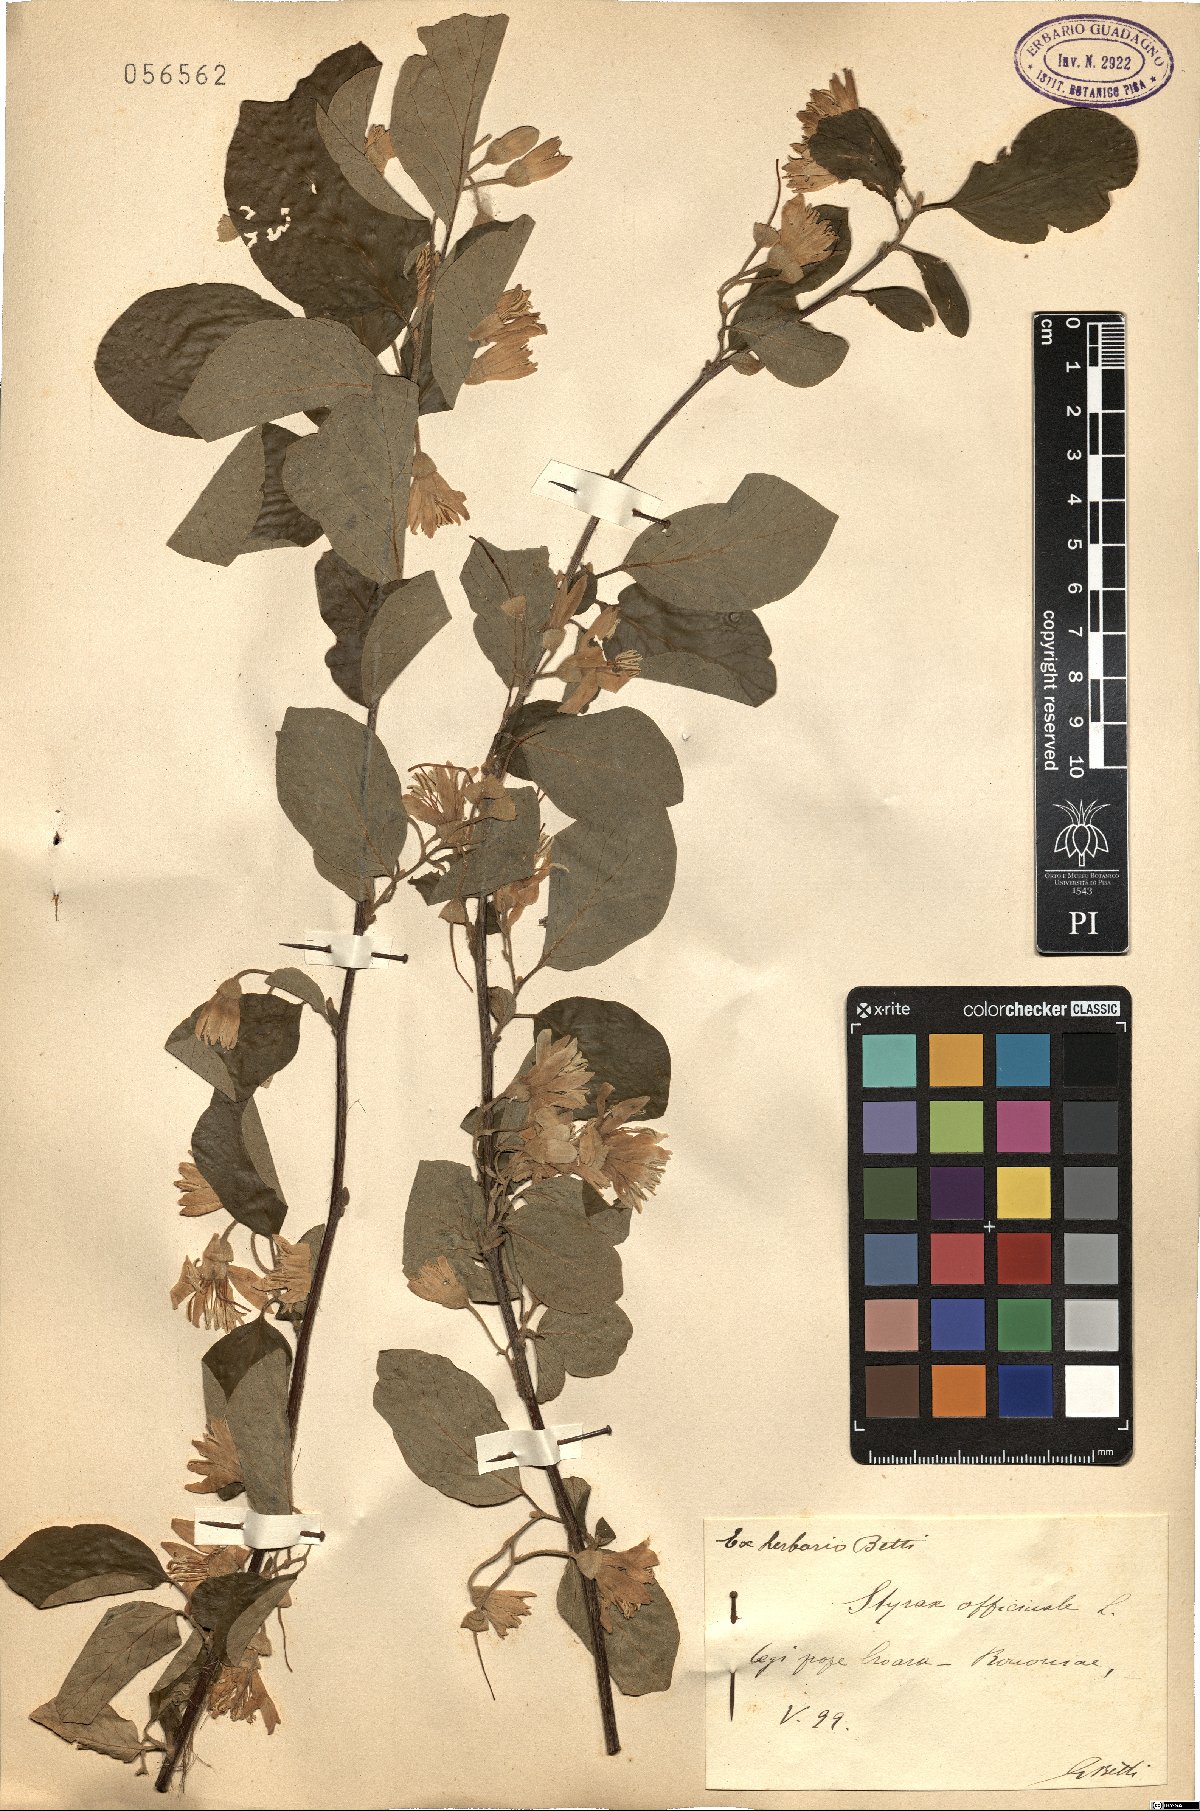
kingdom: Plantae
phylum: Tracheophyta
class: Magnoliopsida
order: Ericales
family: Styracaceae
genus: Styrax
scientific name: Styrax officinalis
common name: Storax
